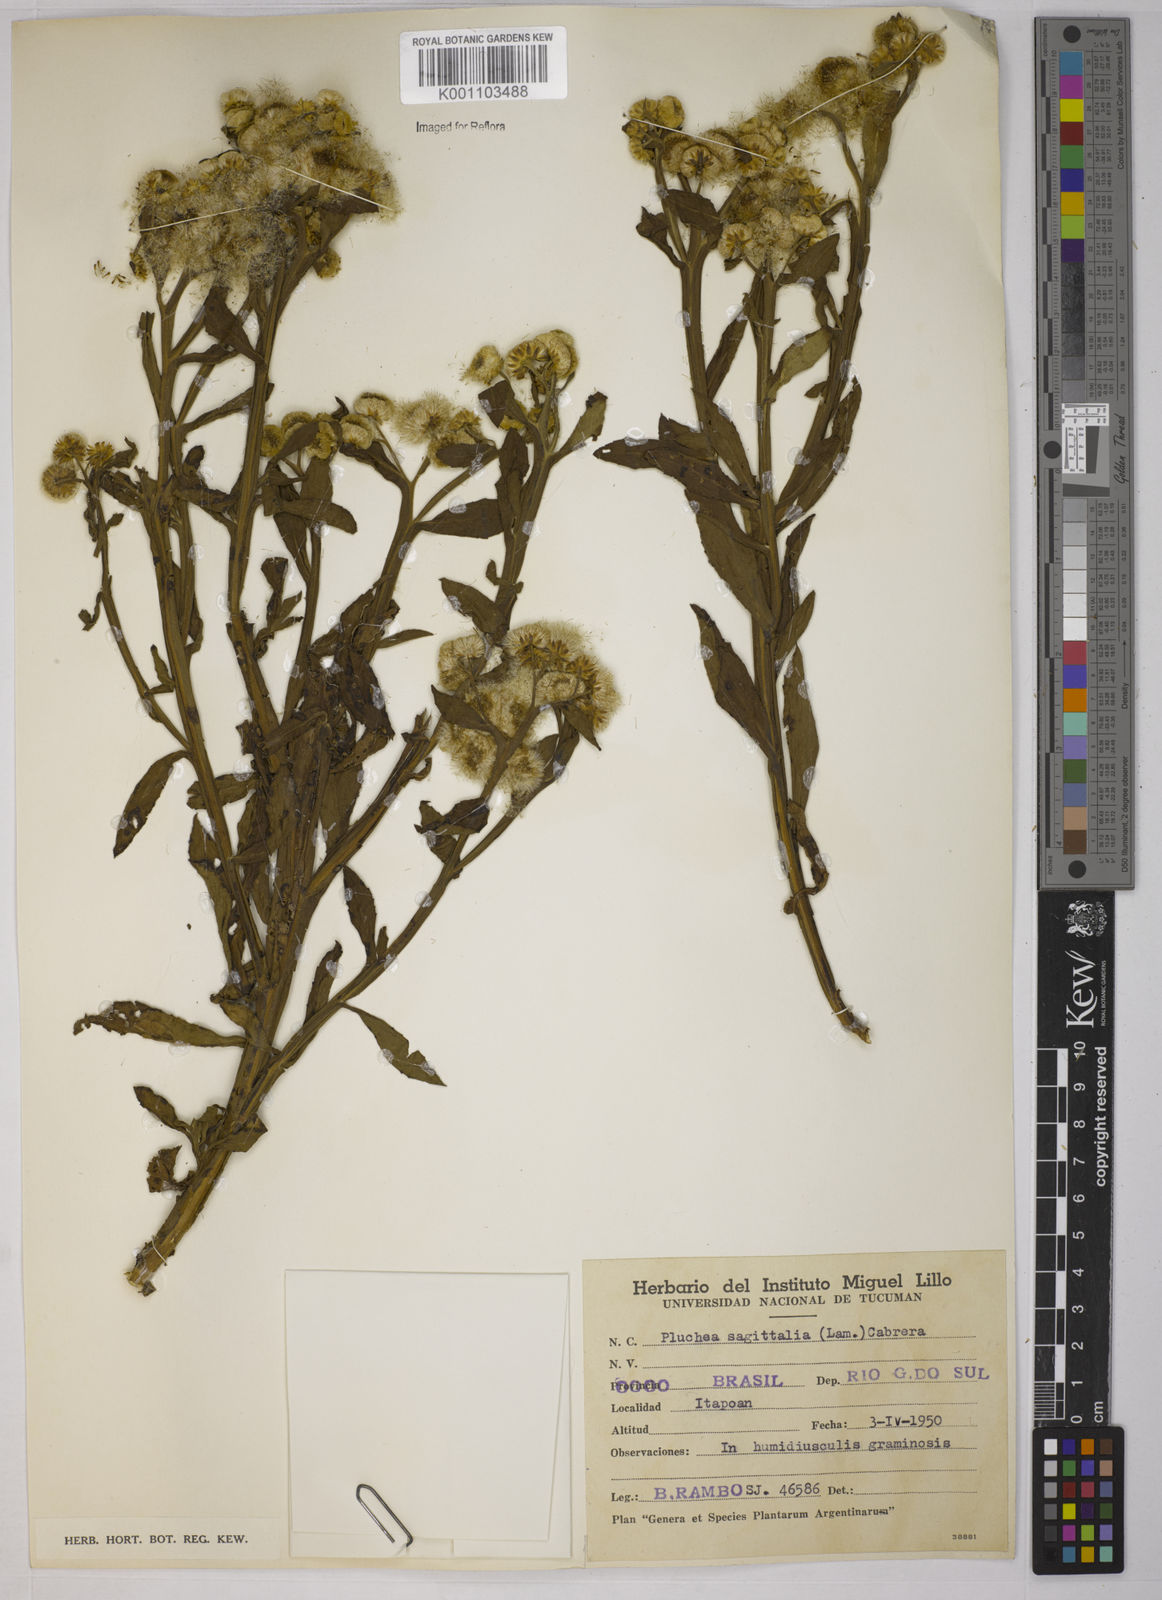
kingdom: Plantae
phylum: Tracheophyta
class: Magnoliopsida
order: Asterales
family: Asteraceae
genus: Pluchea
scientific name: Pluchea sagittalis
